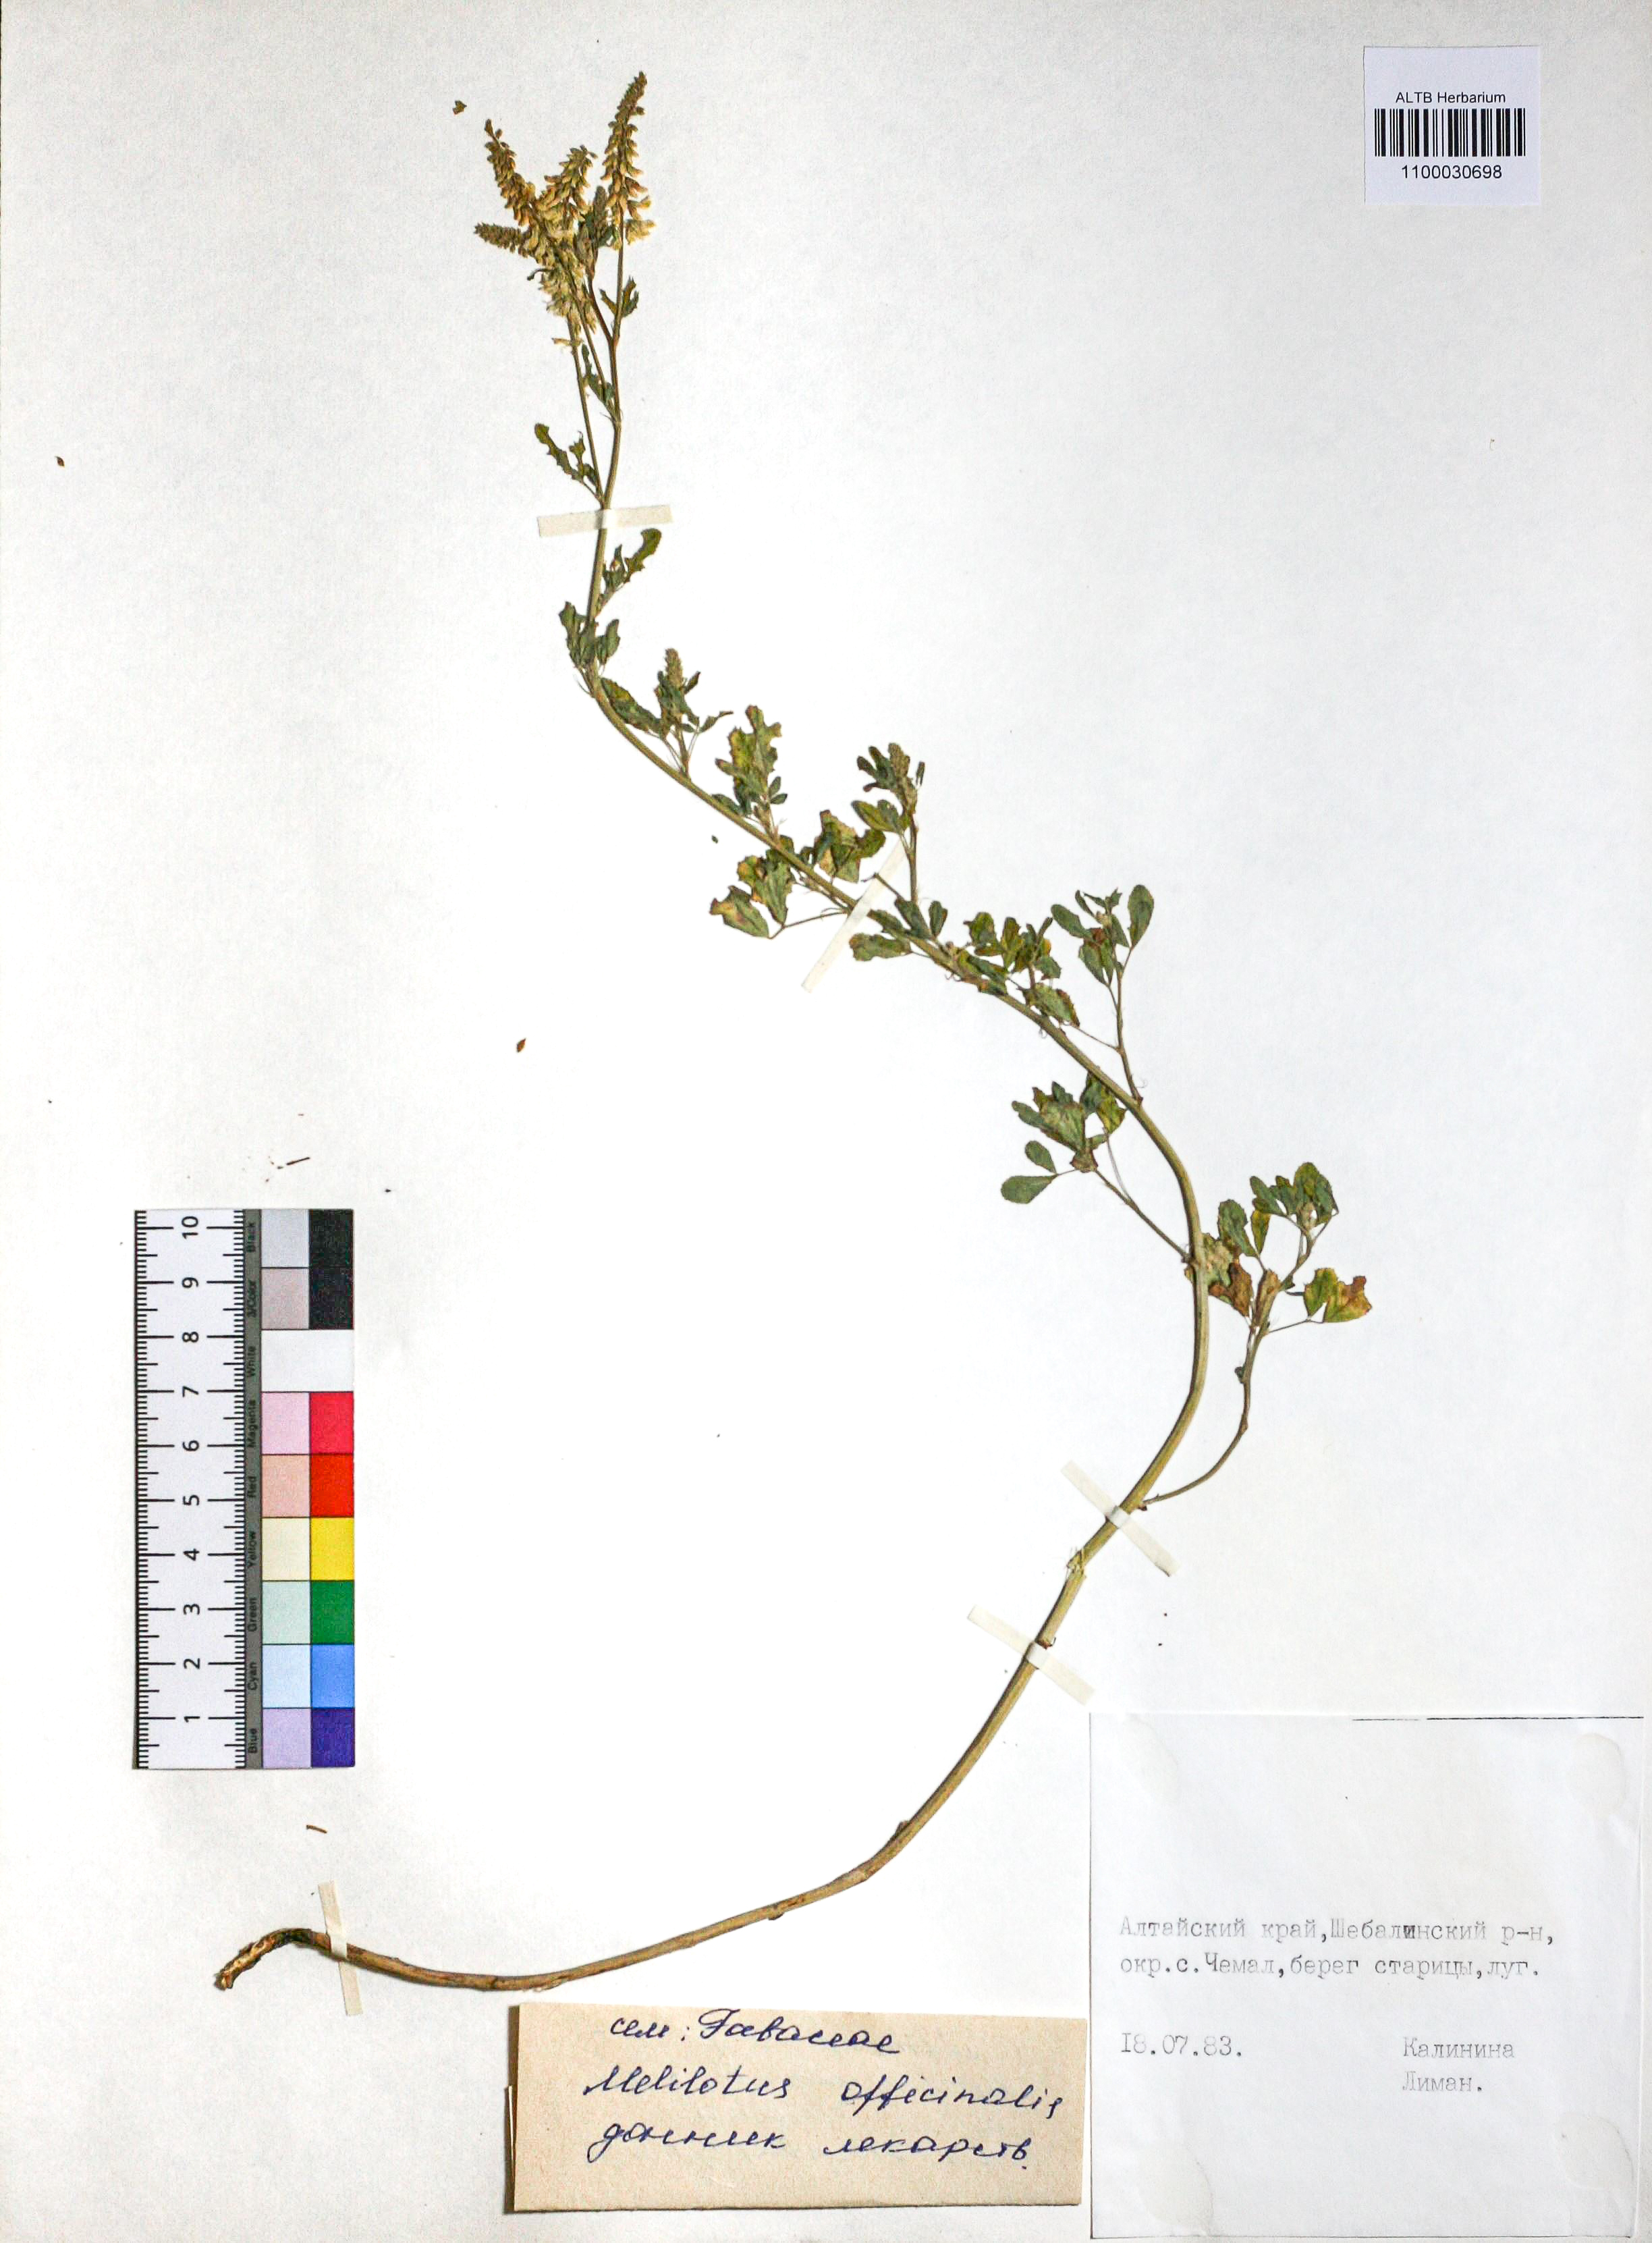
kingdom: Plantae
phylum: Tracheophyta
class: Magnoliopsida
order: Fabales
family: Fabaceae
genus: Melilotus
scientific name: Melilotus officinalis
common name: Sweetclover
